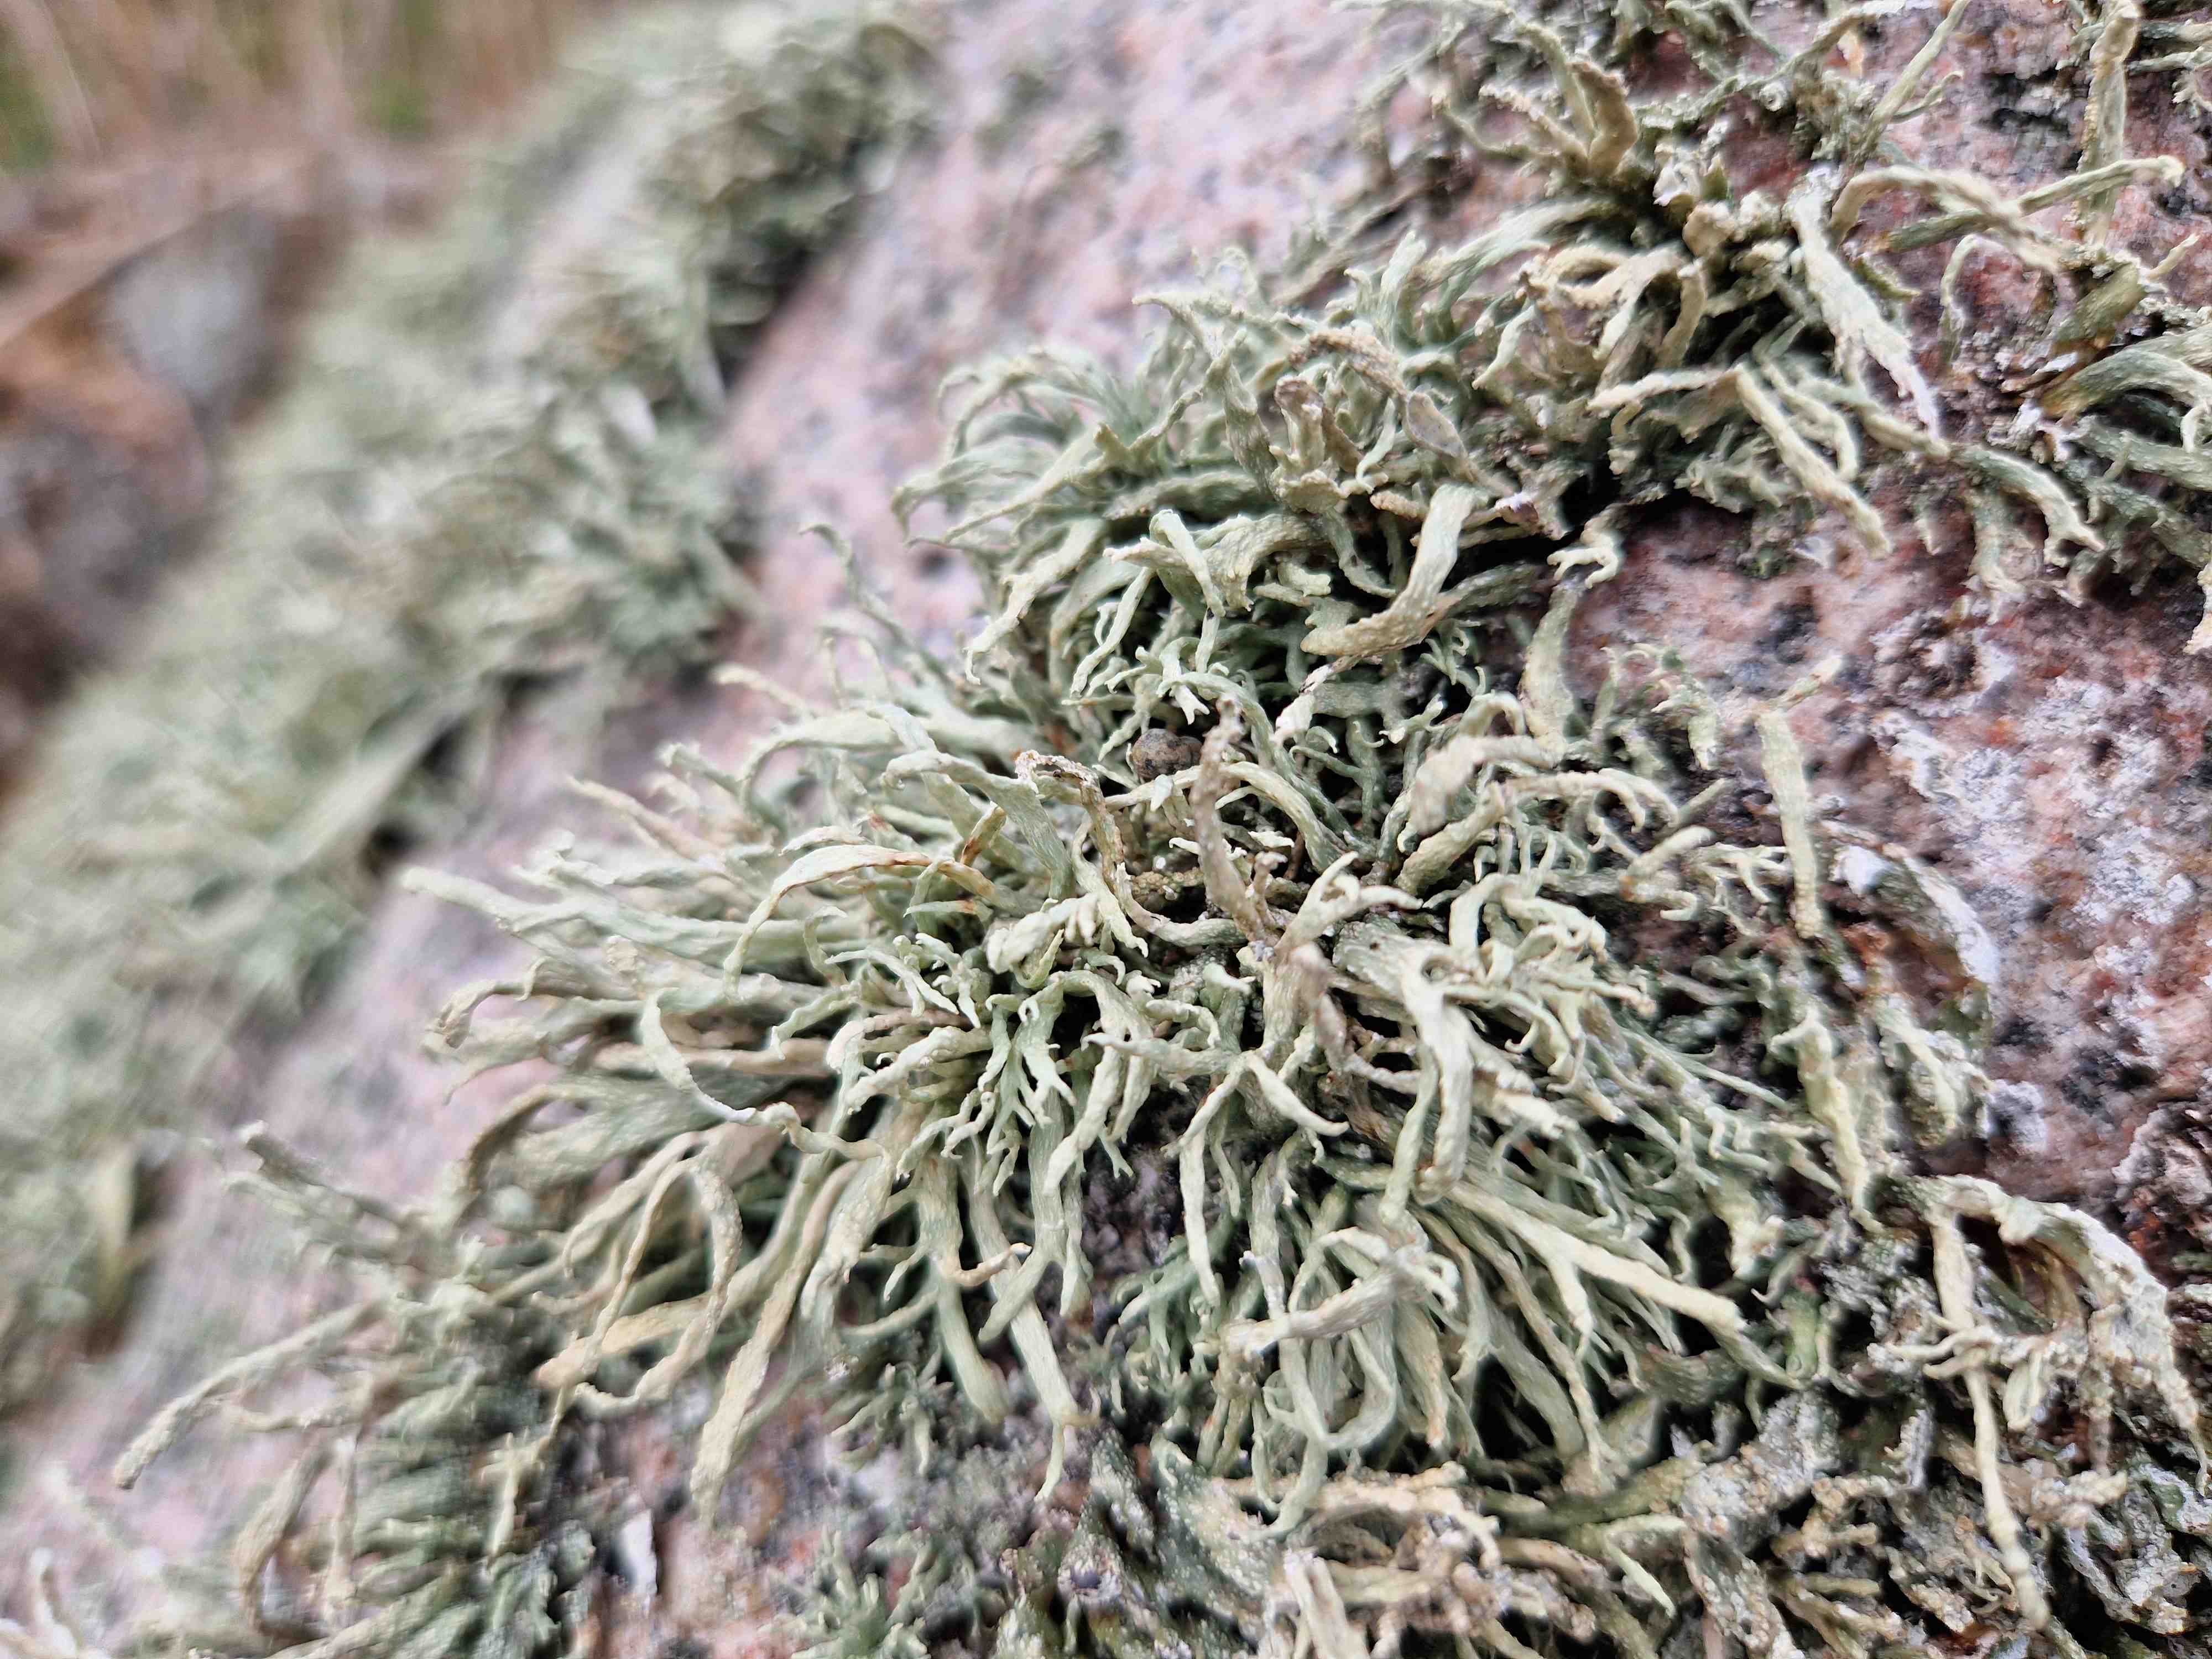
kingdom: Fungi
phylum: Ascomycota
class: Lecanoromycetes
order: Lecanorales
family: Ramalinaceae
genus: Ramalina
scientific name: Ramalina siliquosa
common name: klippe-grenlav
